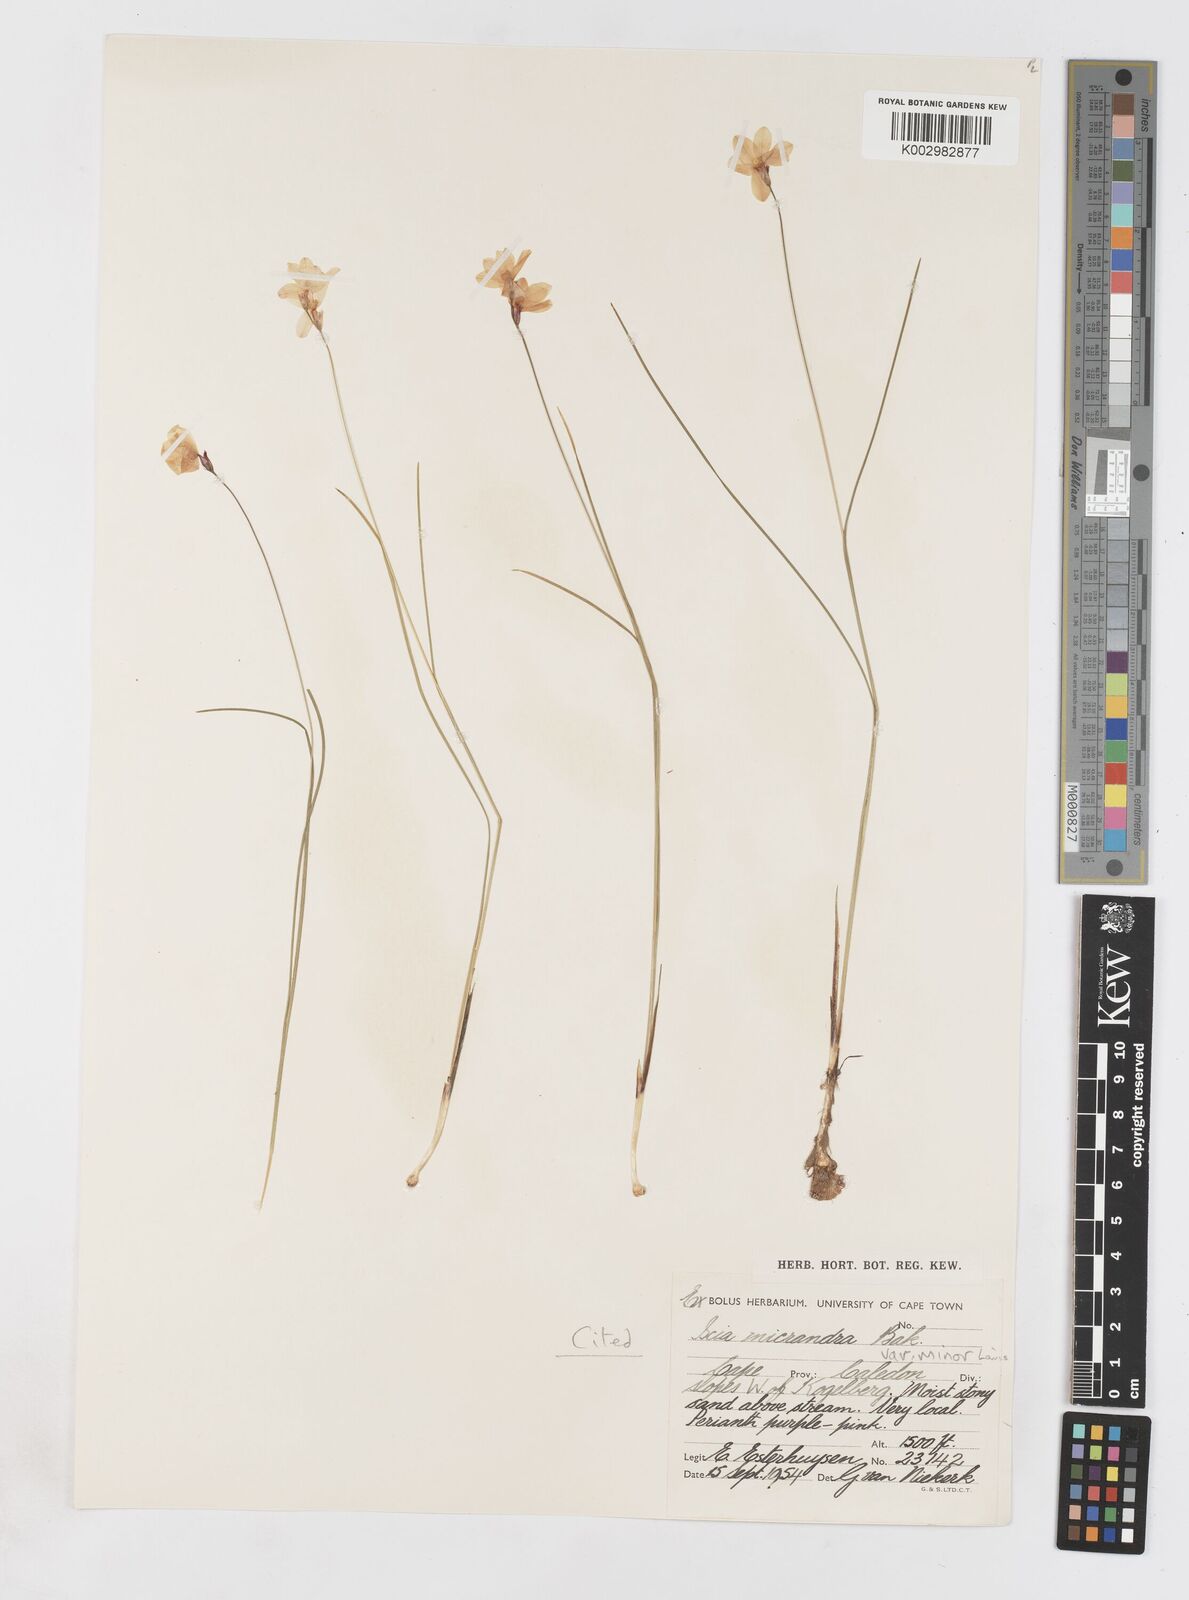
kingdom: Plantae
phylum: Tracheophyta
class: Liliopsida
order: Asparagales
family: Iridaceae
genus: Ixia
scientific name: Ixia minor
